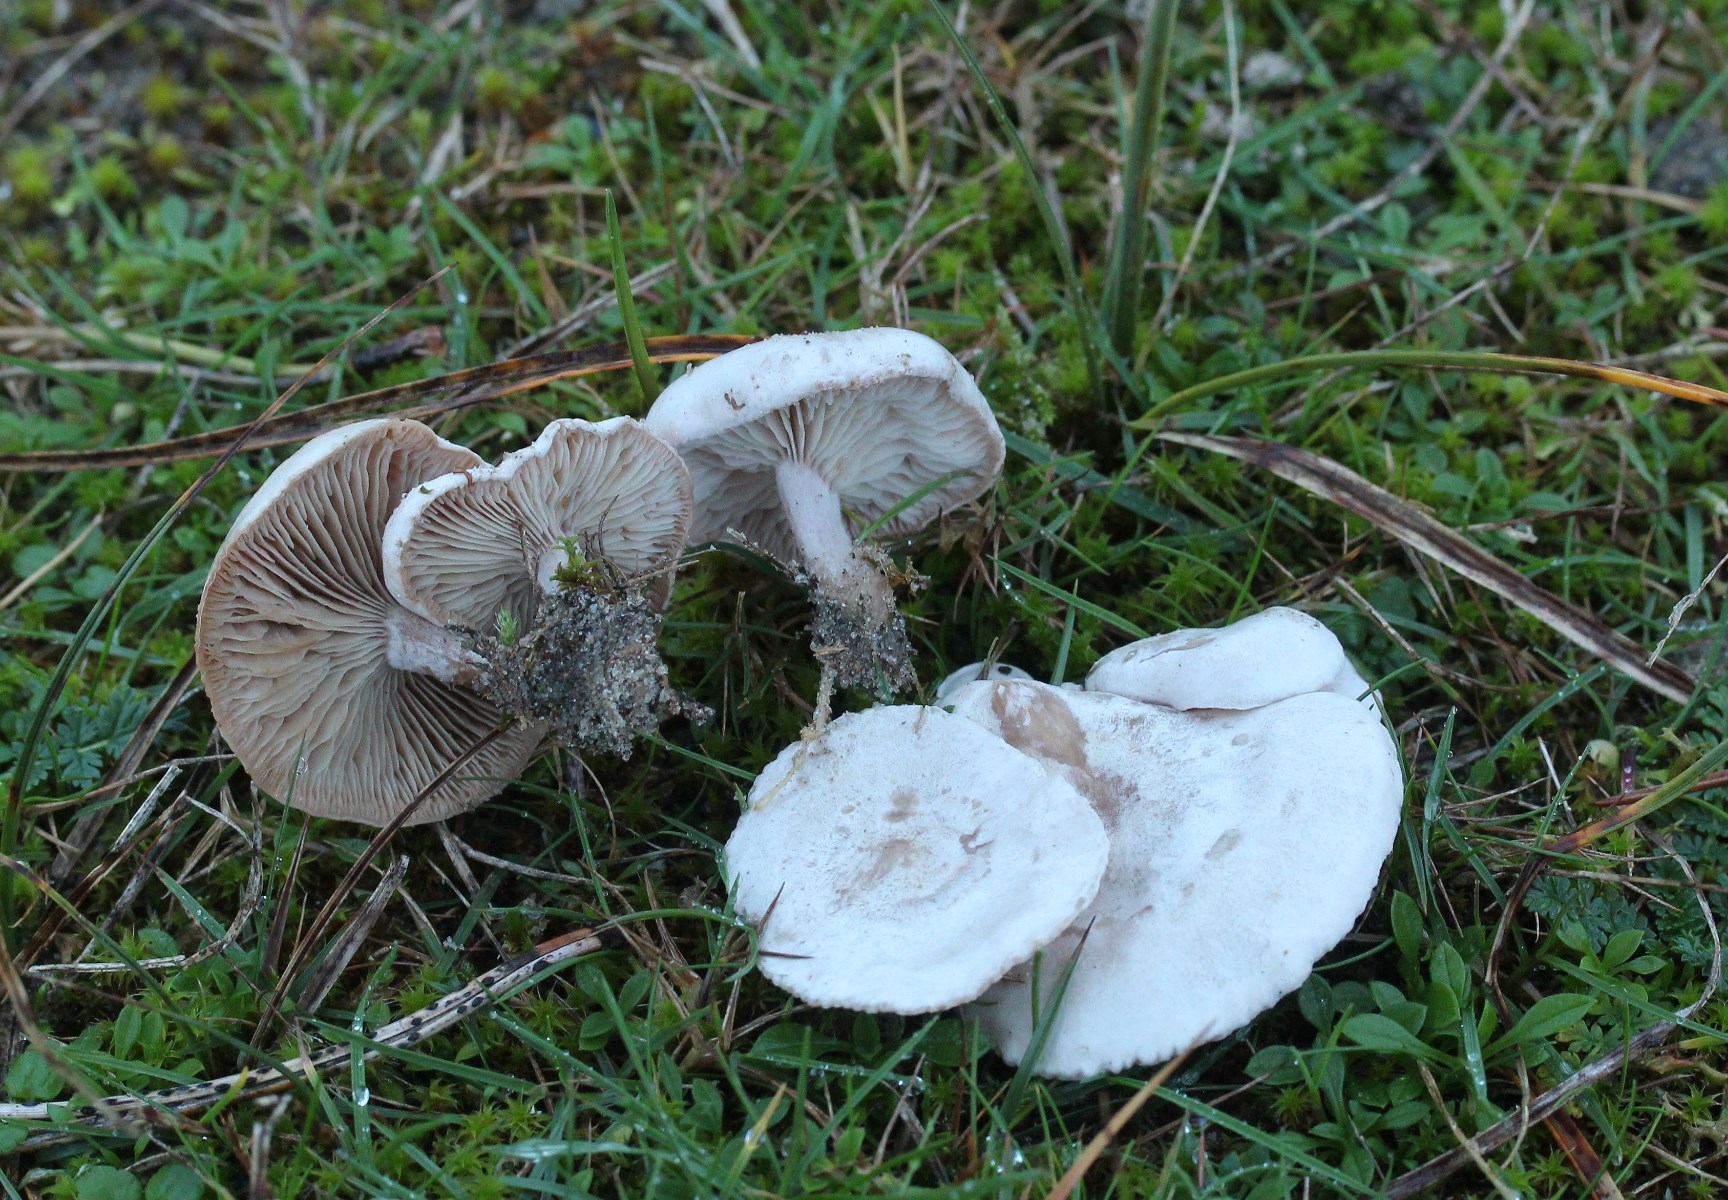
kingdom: Fungi
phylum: Basidiomycota
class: Agaricomycetes
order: Agaricales
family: Tricholomataceae
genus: Clitocybe
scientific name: Clitocybe rivulosa
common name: eng-tragthat
